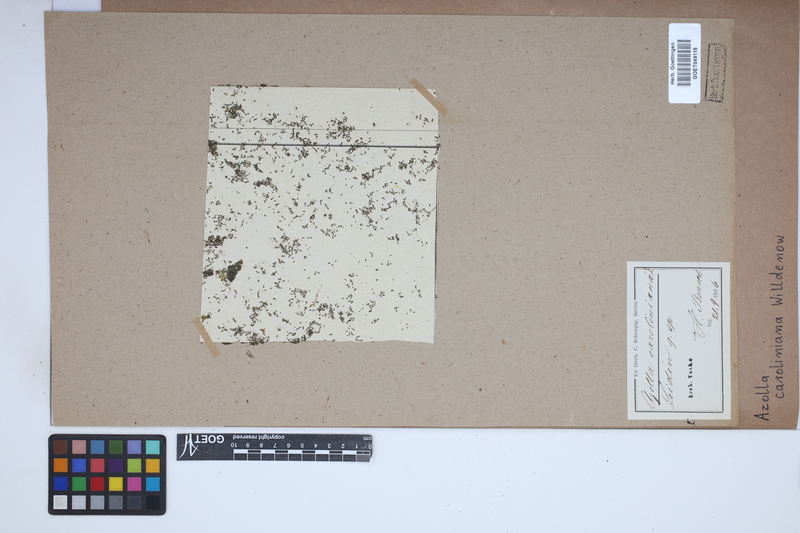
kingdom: Plantae
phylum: Tracheophyta
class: Polypodiopsida
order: Salviniales
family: Salviniaceae
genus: Azolla
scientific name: Azolla caroliniana
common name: Carolina mosquitofern
